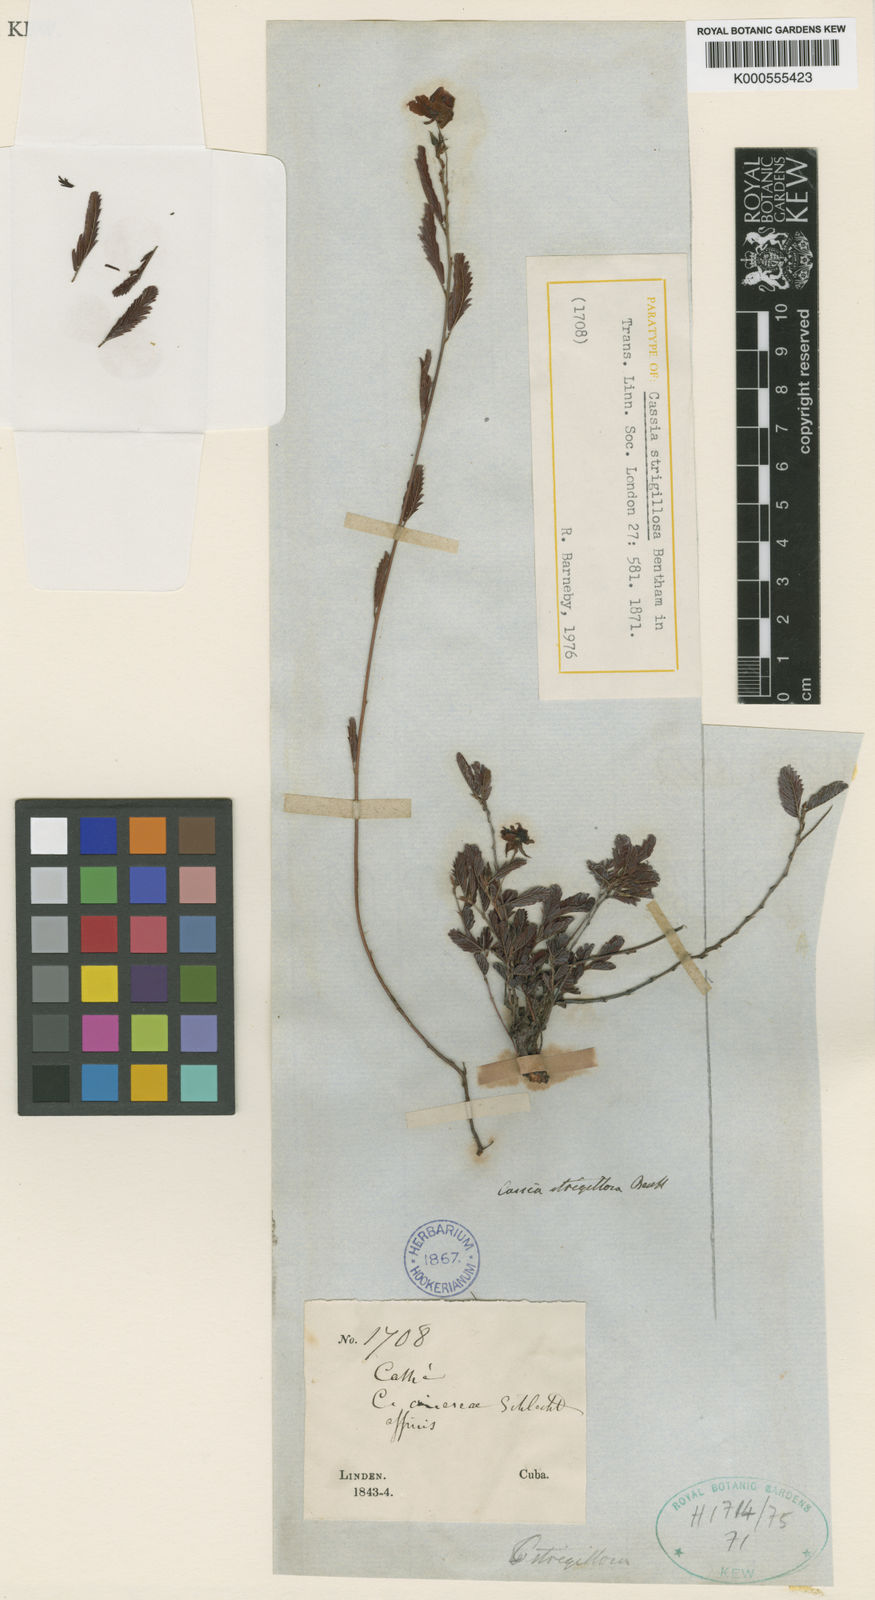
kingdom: Plantae
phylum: Tracheophyta
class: Magnoliopsida
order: Fabales
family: Fabaceae
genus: Chamaecrista
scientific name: Chamaecrista pedicellaris
